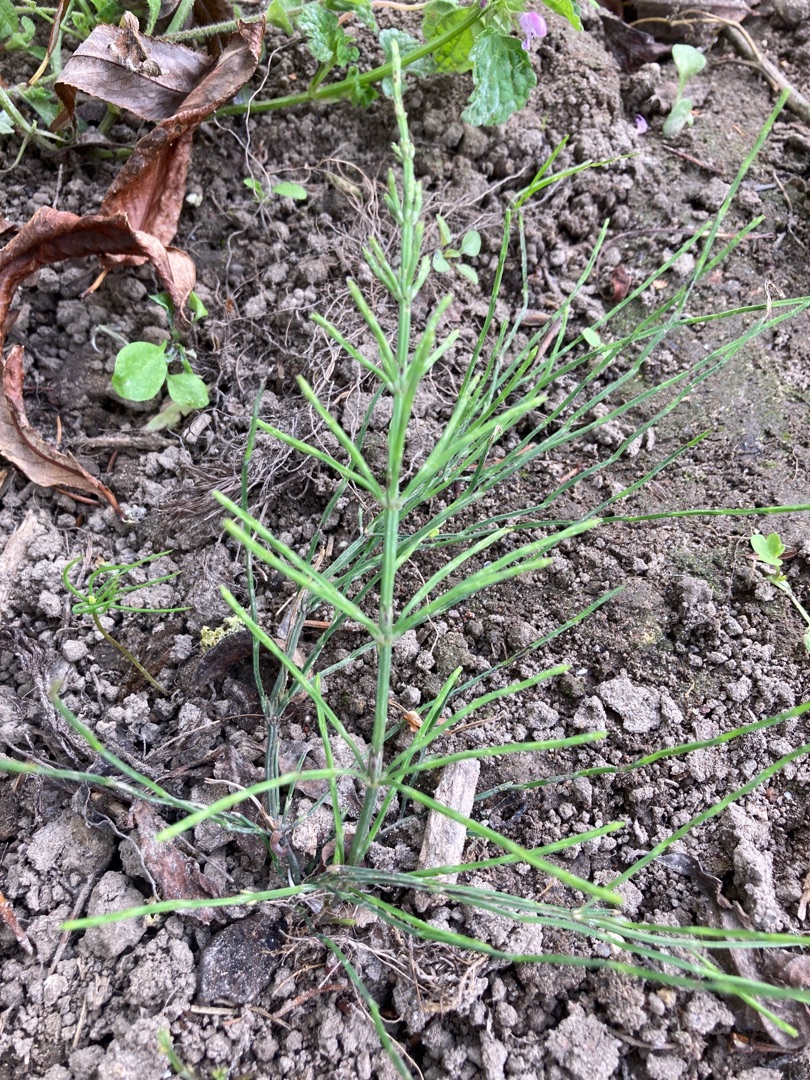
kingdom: Plantae
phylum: Tracheophyta
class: Polypodiopsida
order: Equisetales
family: Equisetaceae
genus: Equisetum
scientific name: Equisetum arvense
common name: Ager-padderok
